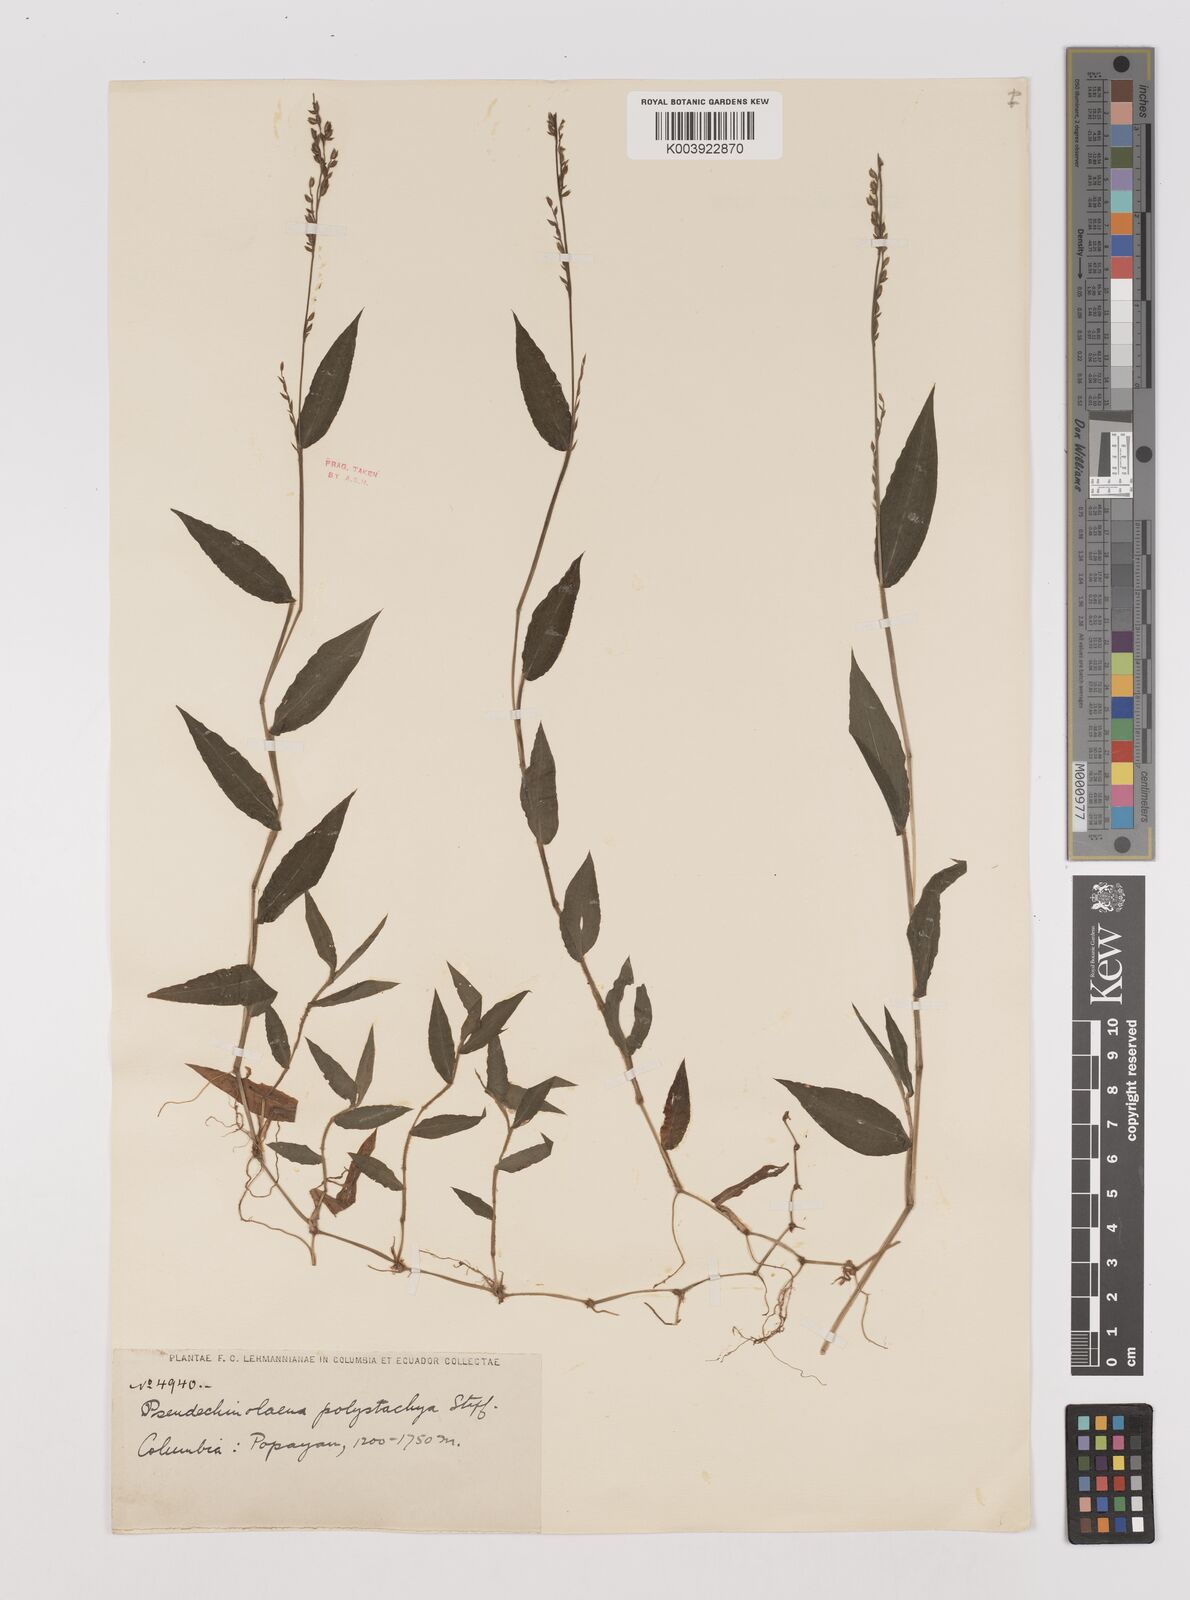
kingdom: Plantae
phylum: Tracheophyta
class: Liliopsida
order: Poales
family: Poaceae
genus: Pseudechinolaena
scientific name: Pseudechinolaena polystachya
